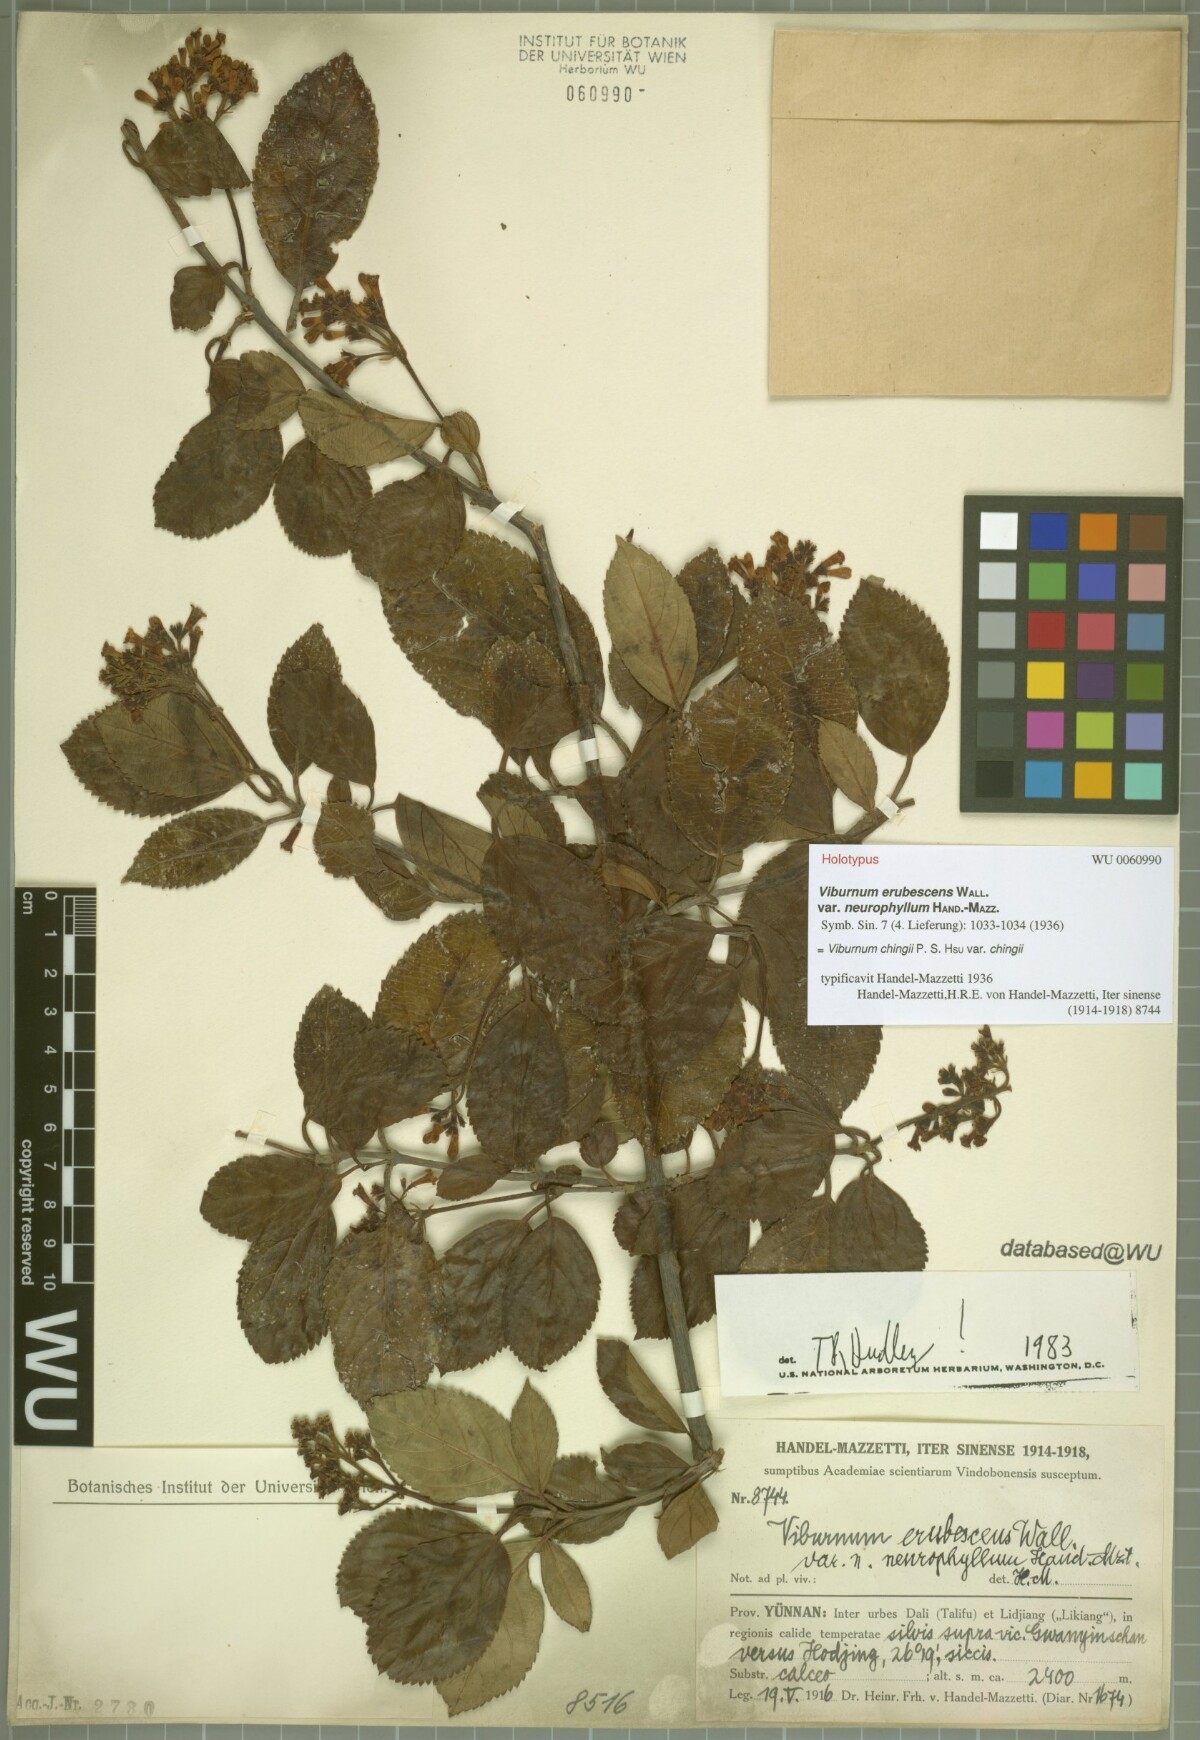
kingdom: Plantae
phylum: Tracheophyta
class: Magnoliopsida
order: Dipsacales
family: Viburnaceae
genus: Viburnum
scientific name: Viburnum chingii
